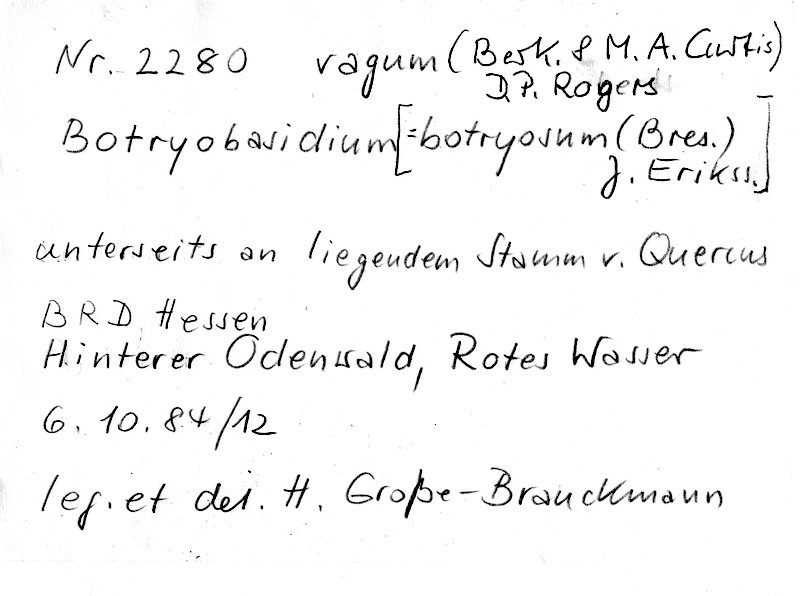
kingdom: Fungi
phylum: Basidiomycota
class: Agaricomycetes
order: Cantharellales
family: Botryobasidiaceae
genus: Botryobasidium
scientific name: Botryobasidium vagum
